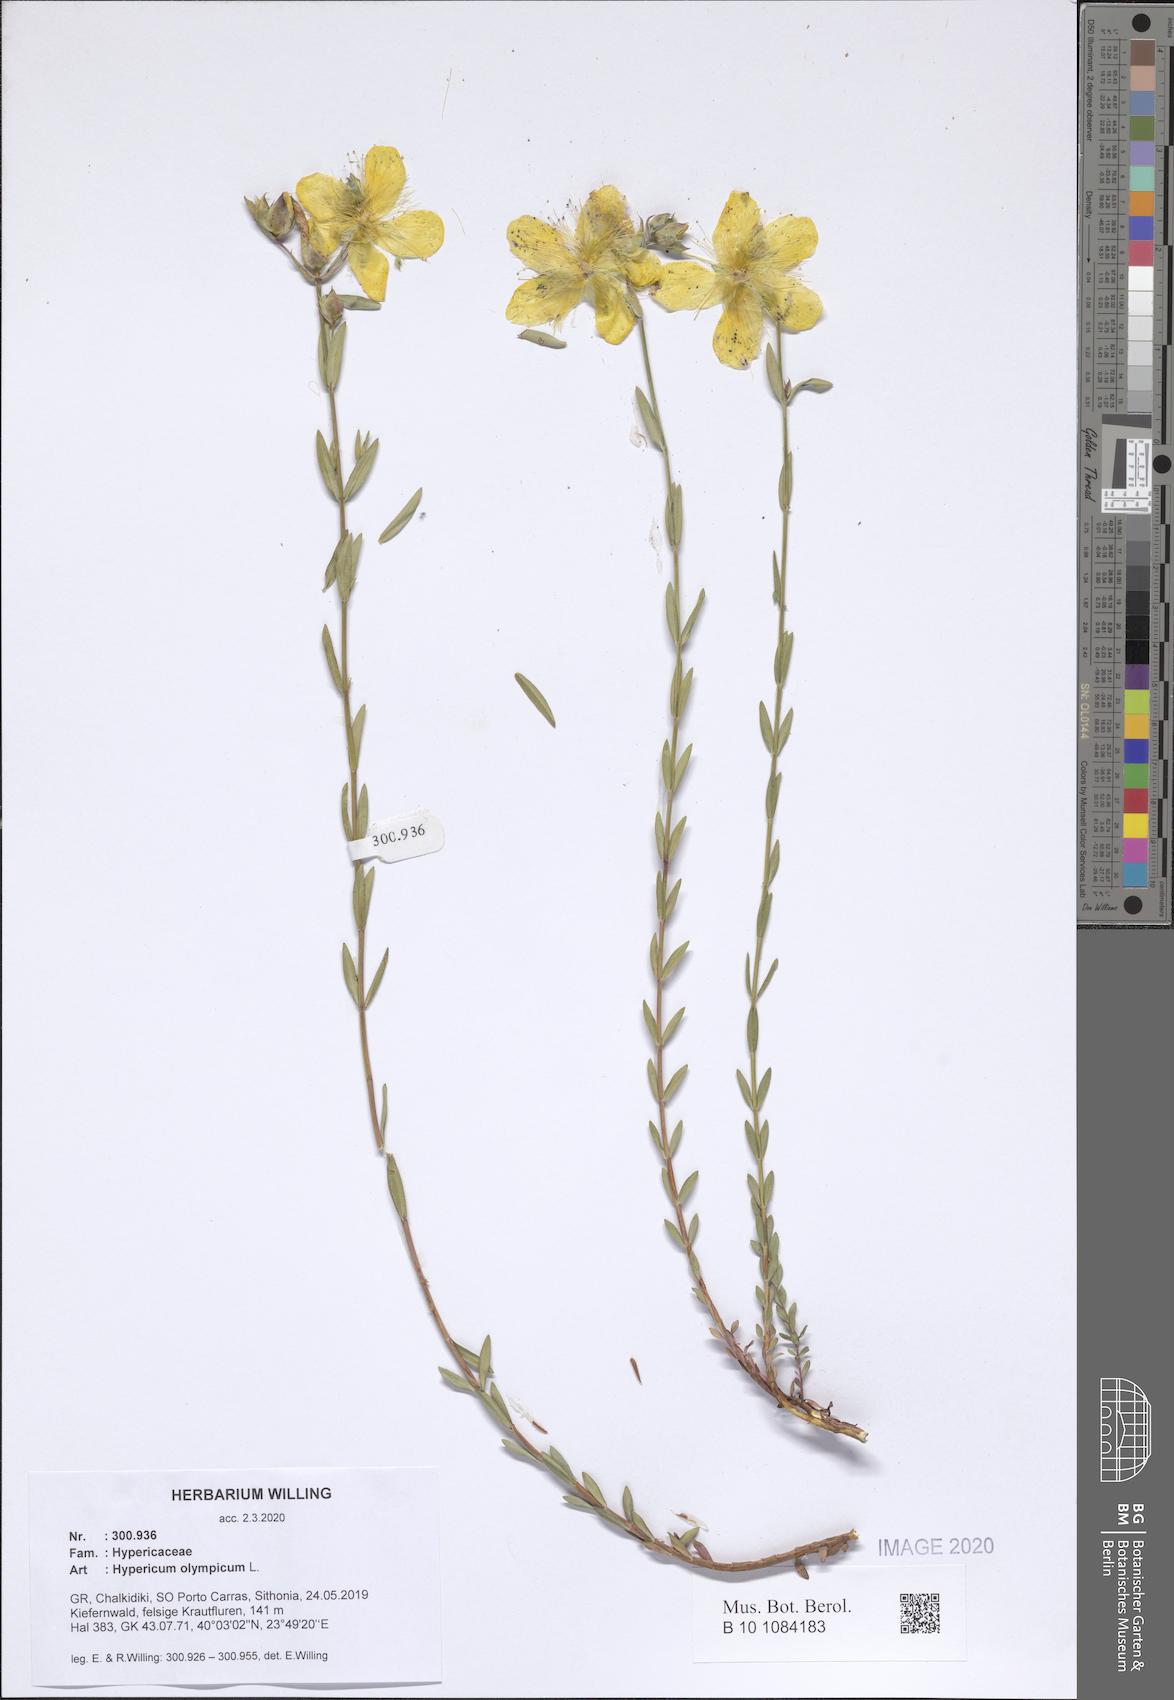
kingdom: Plantae
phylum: Tracheophyta
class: Magnoliopsida
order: Malpighiales
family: Hypericaceae
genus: Hypericum
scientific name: Hypericum olympicum
